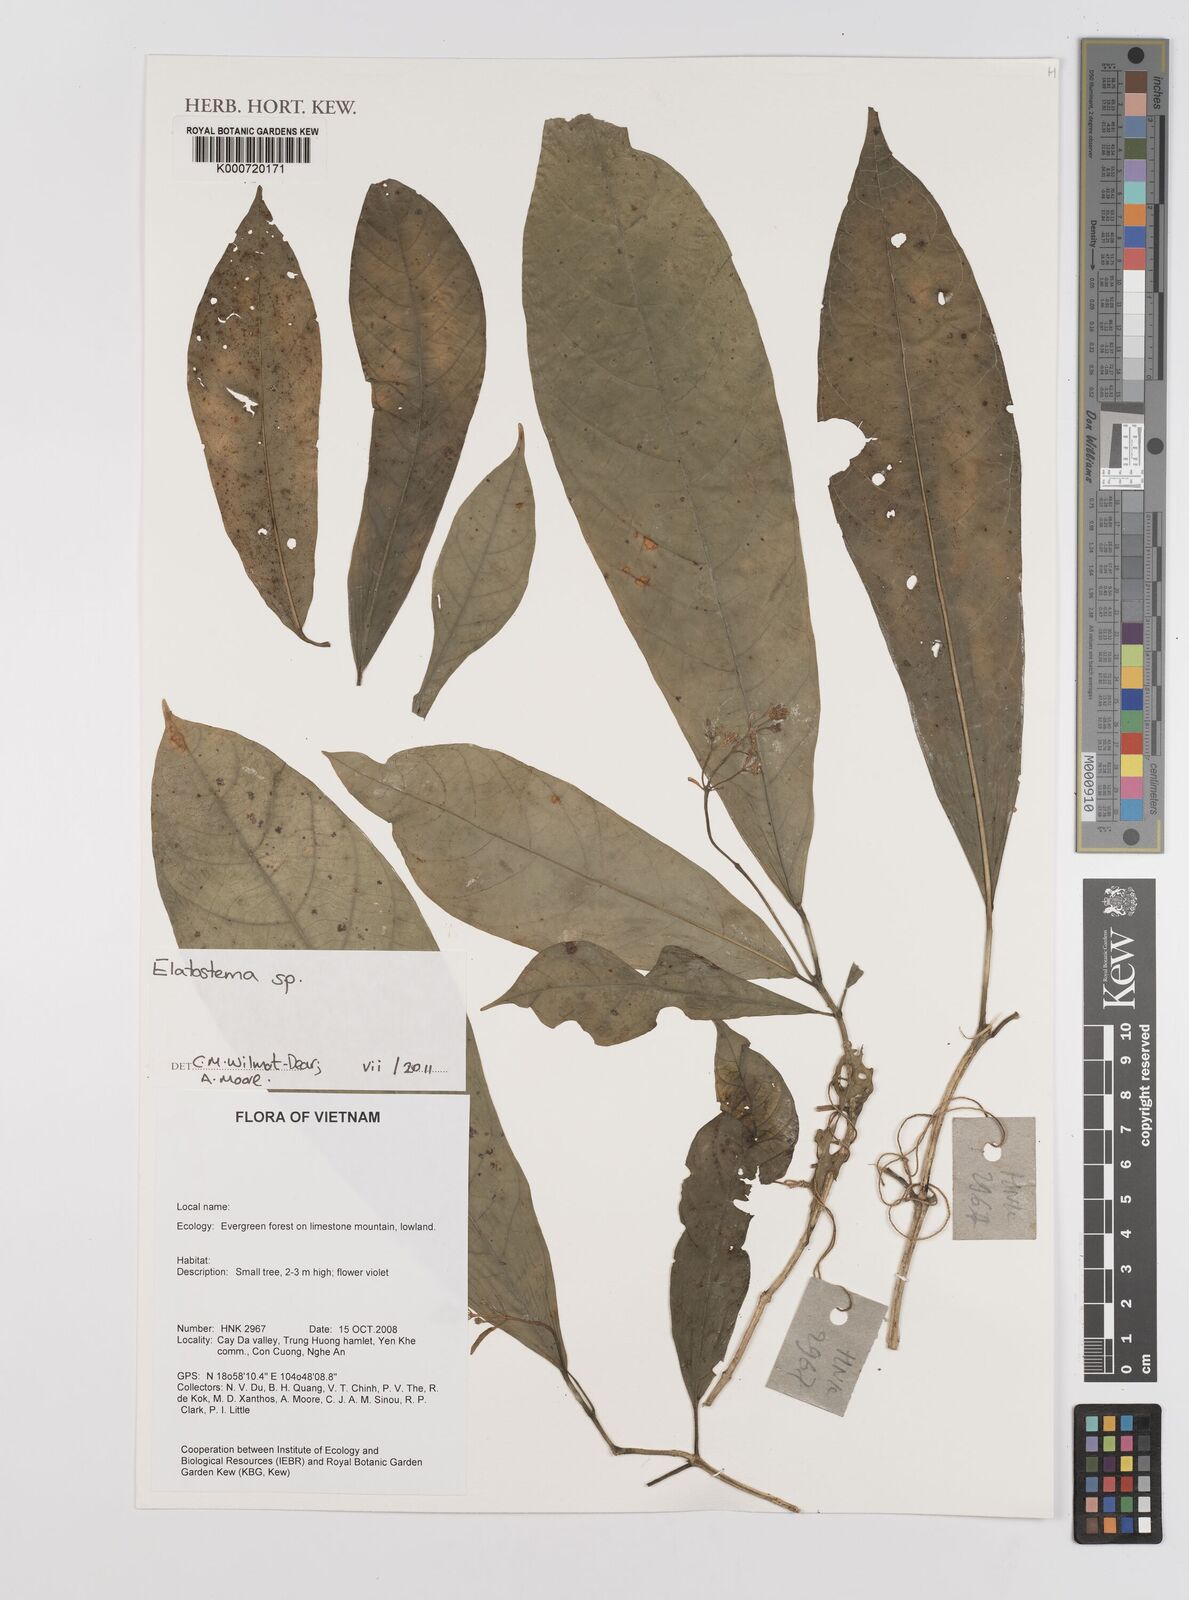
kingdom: Plantae
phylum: Tracheophyta
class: Magnoliopsida
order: Rosales
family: Urticaceae
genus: Elatostema
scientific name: Elatostema
